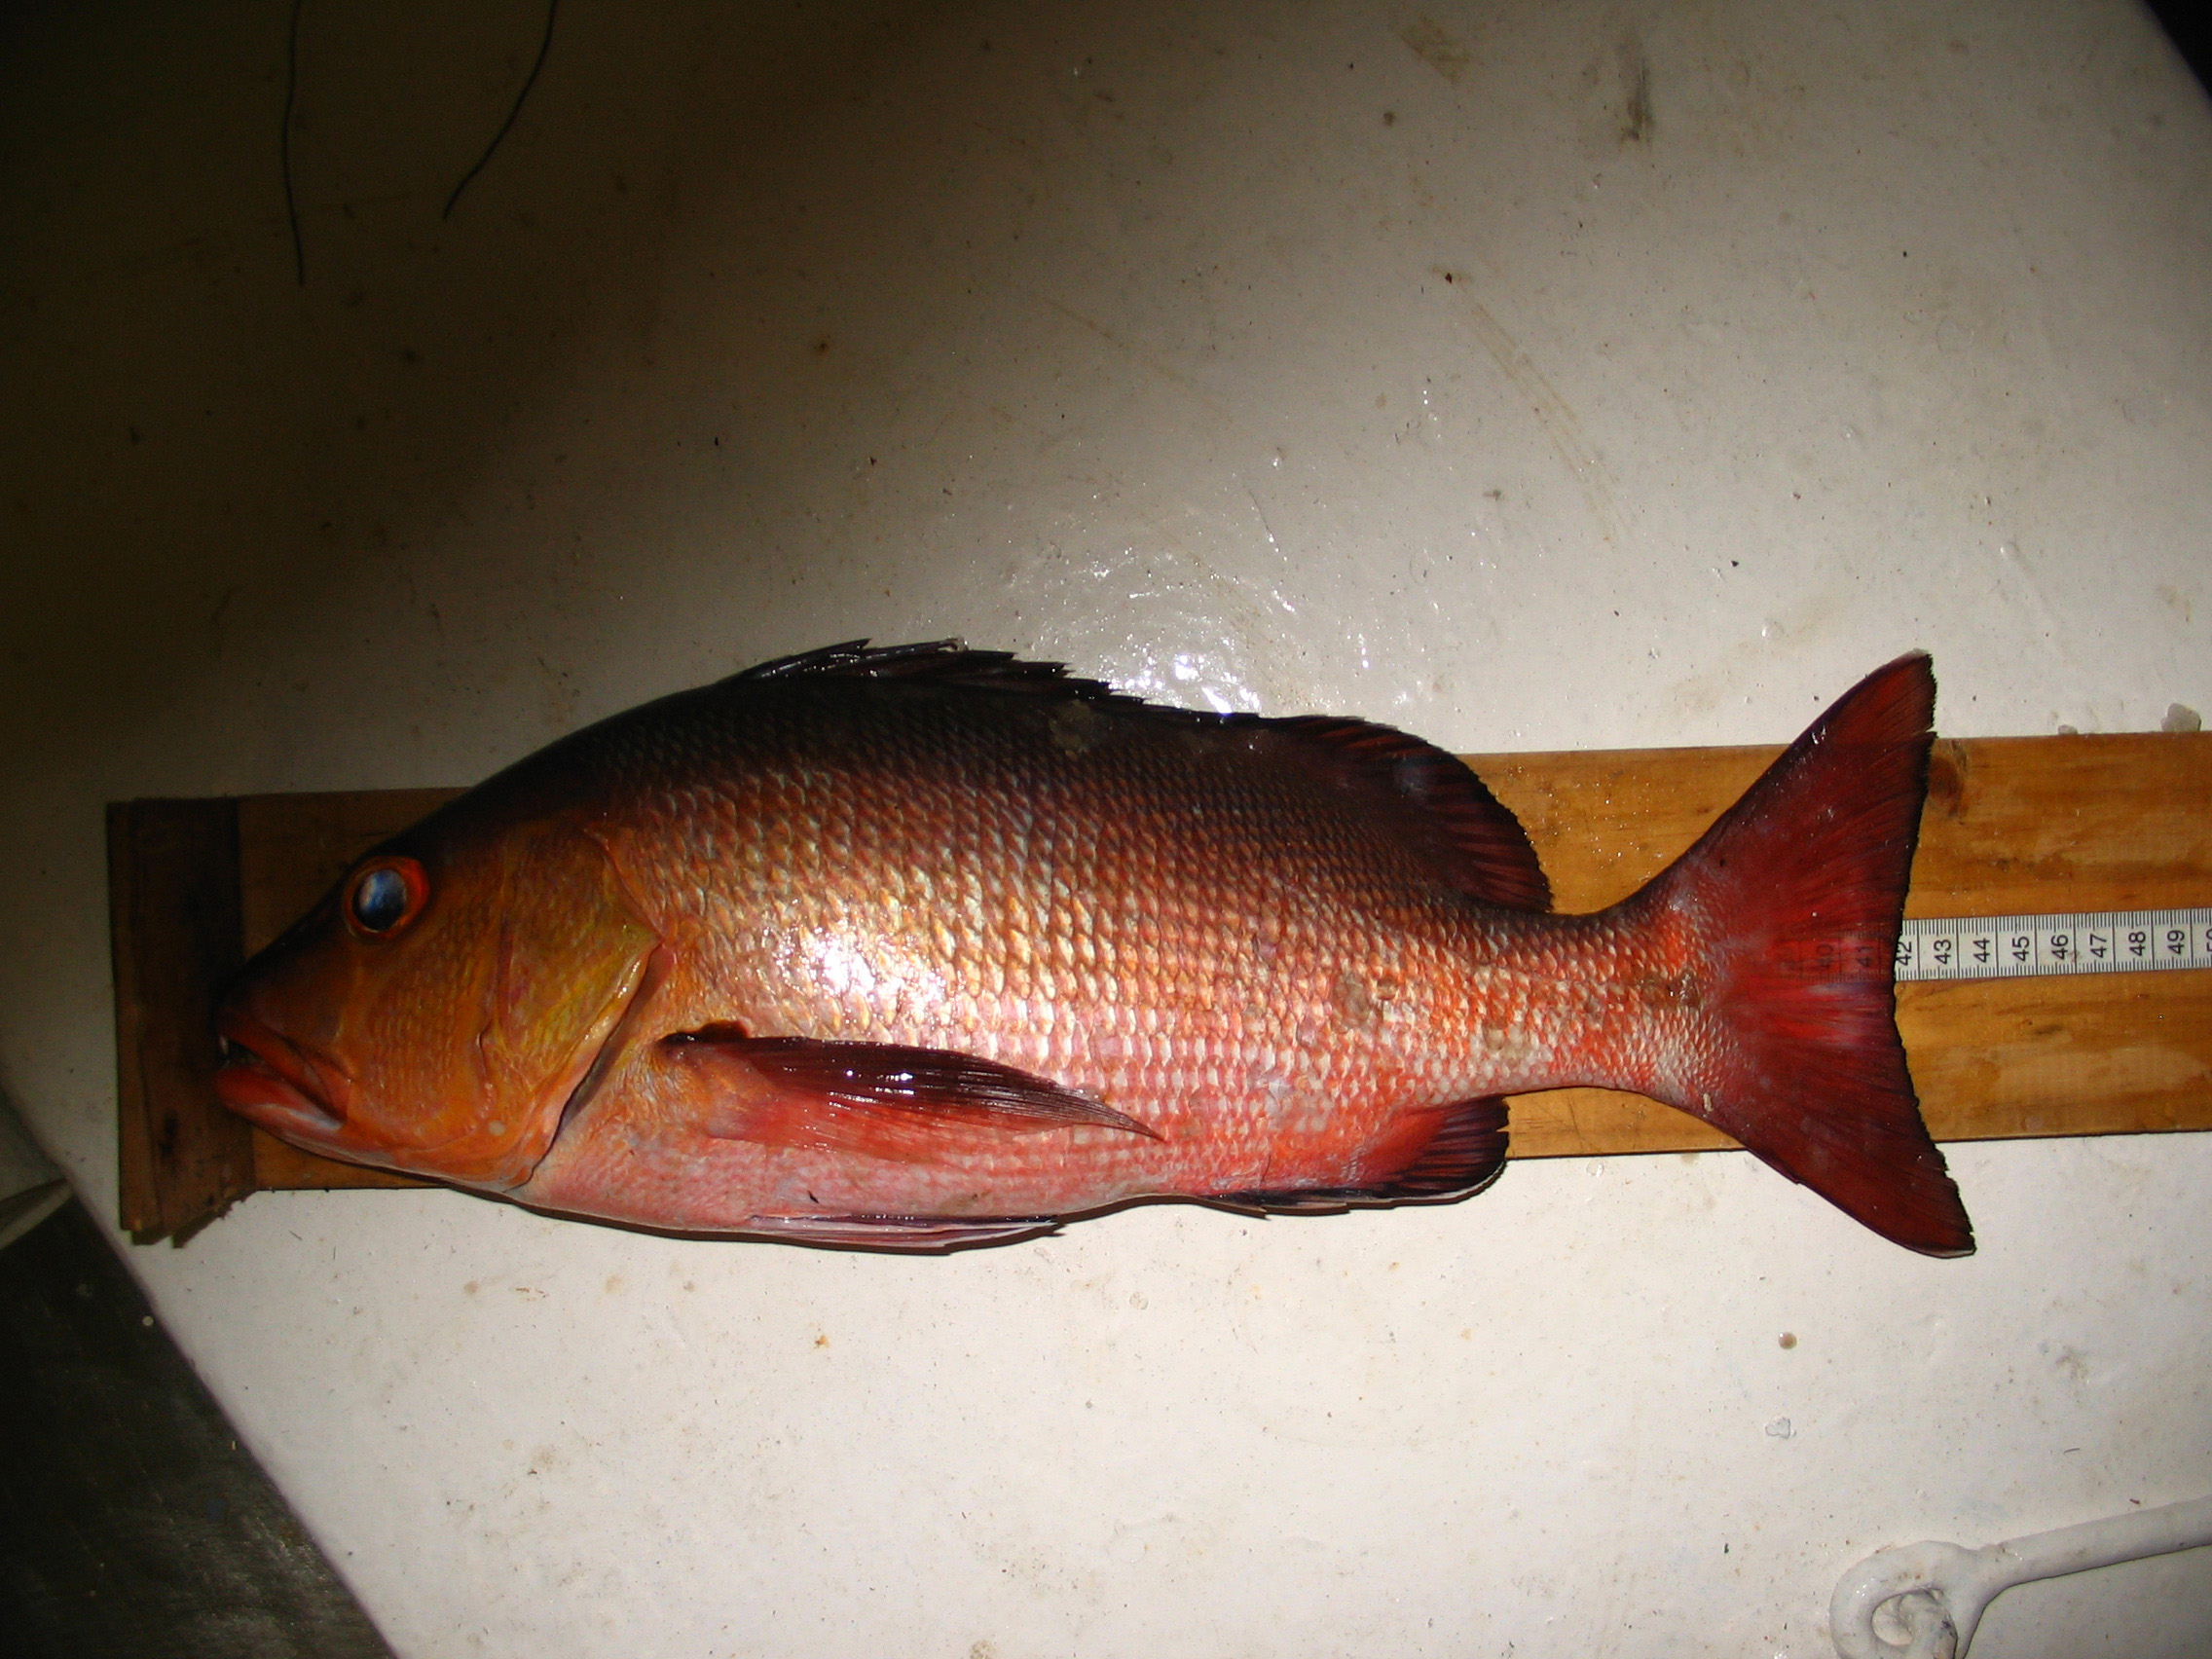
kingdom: Animalia
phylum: Chordata
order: Perciformes
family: Lutjanidae
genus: Lutjanus
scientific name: Lutjanus bohar
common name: Red bass
